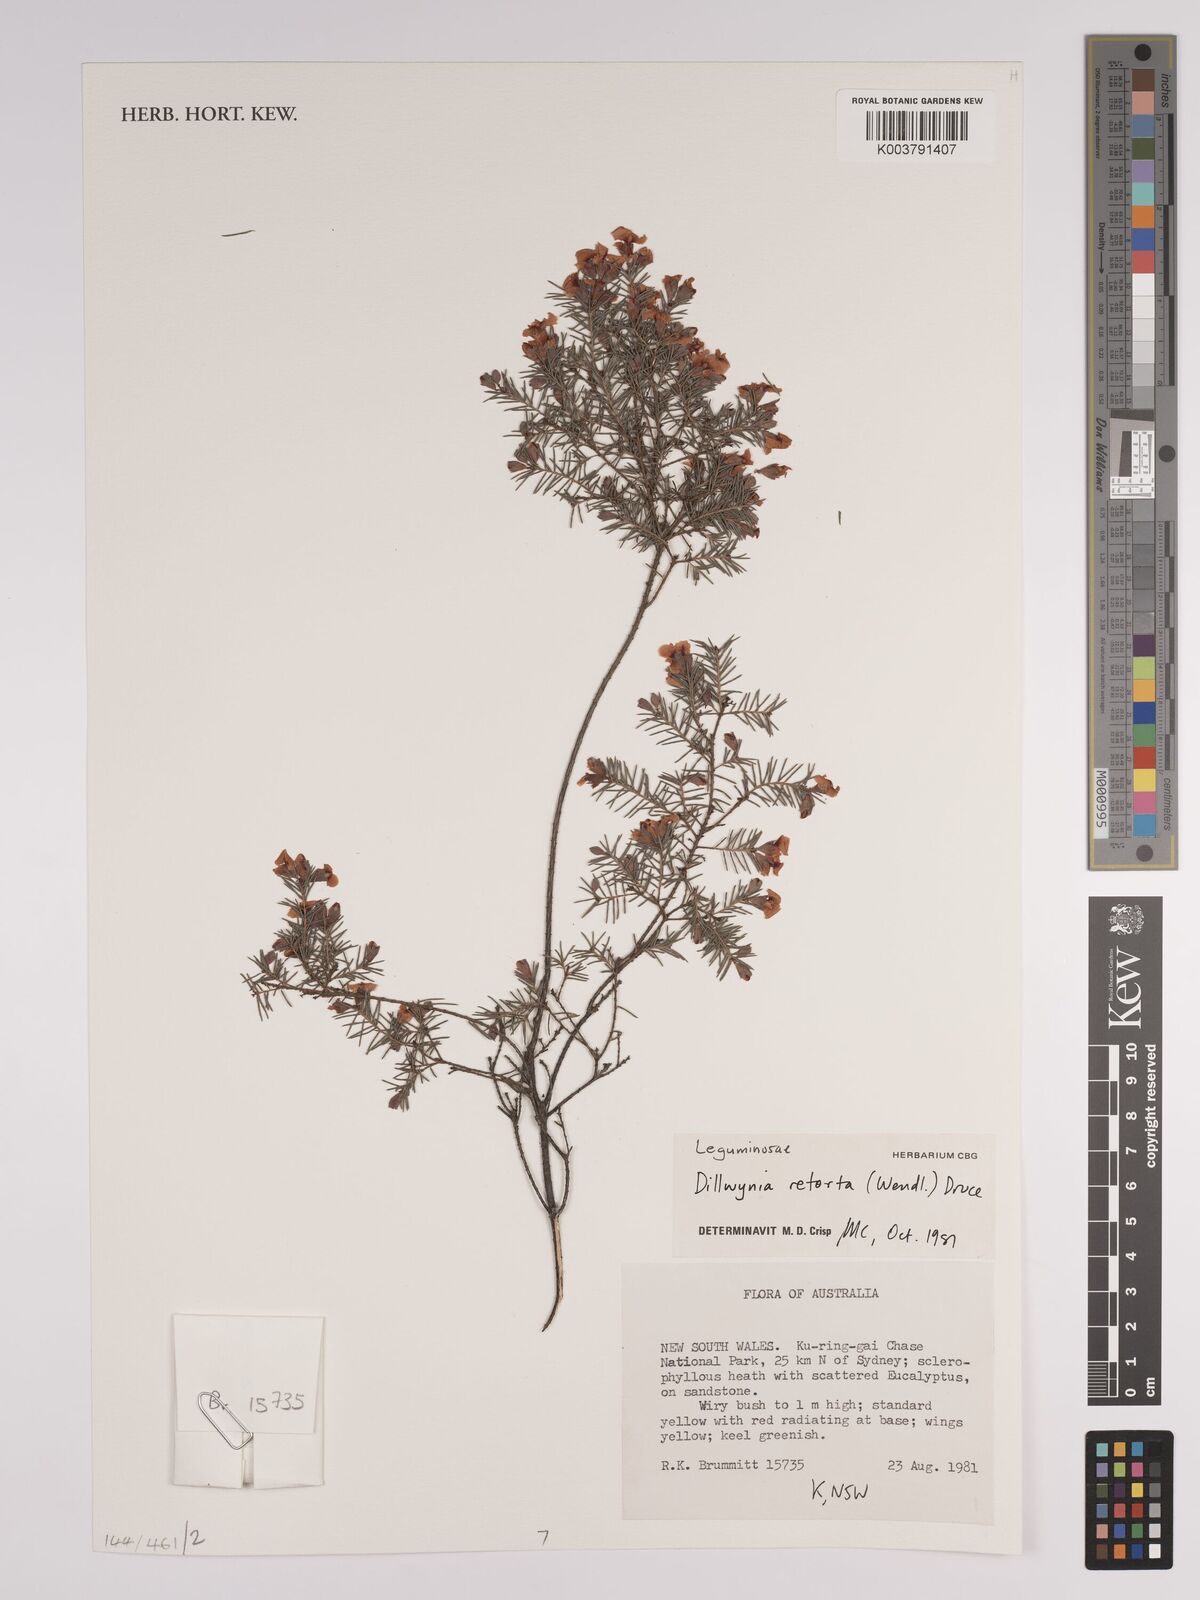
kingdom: Plantae
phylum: Tracheophyta
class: Magnoliopsida
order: Fabales
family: Fabaceae
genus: Dillwynia
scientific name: Dillwynia retorta
